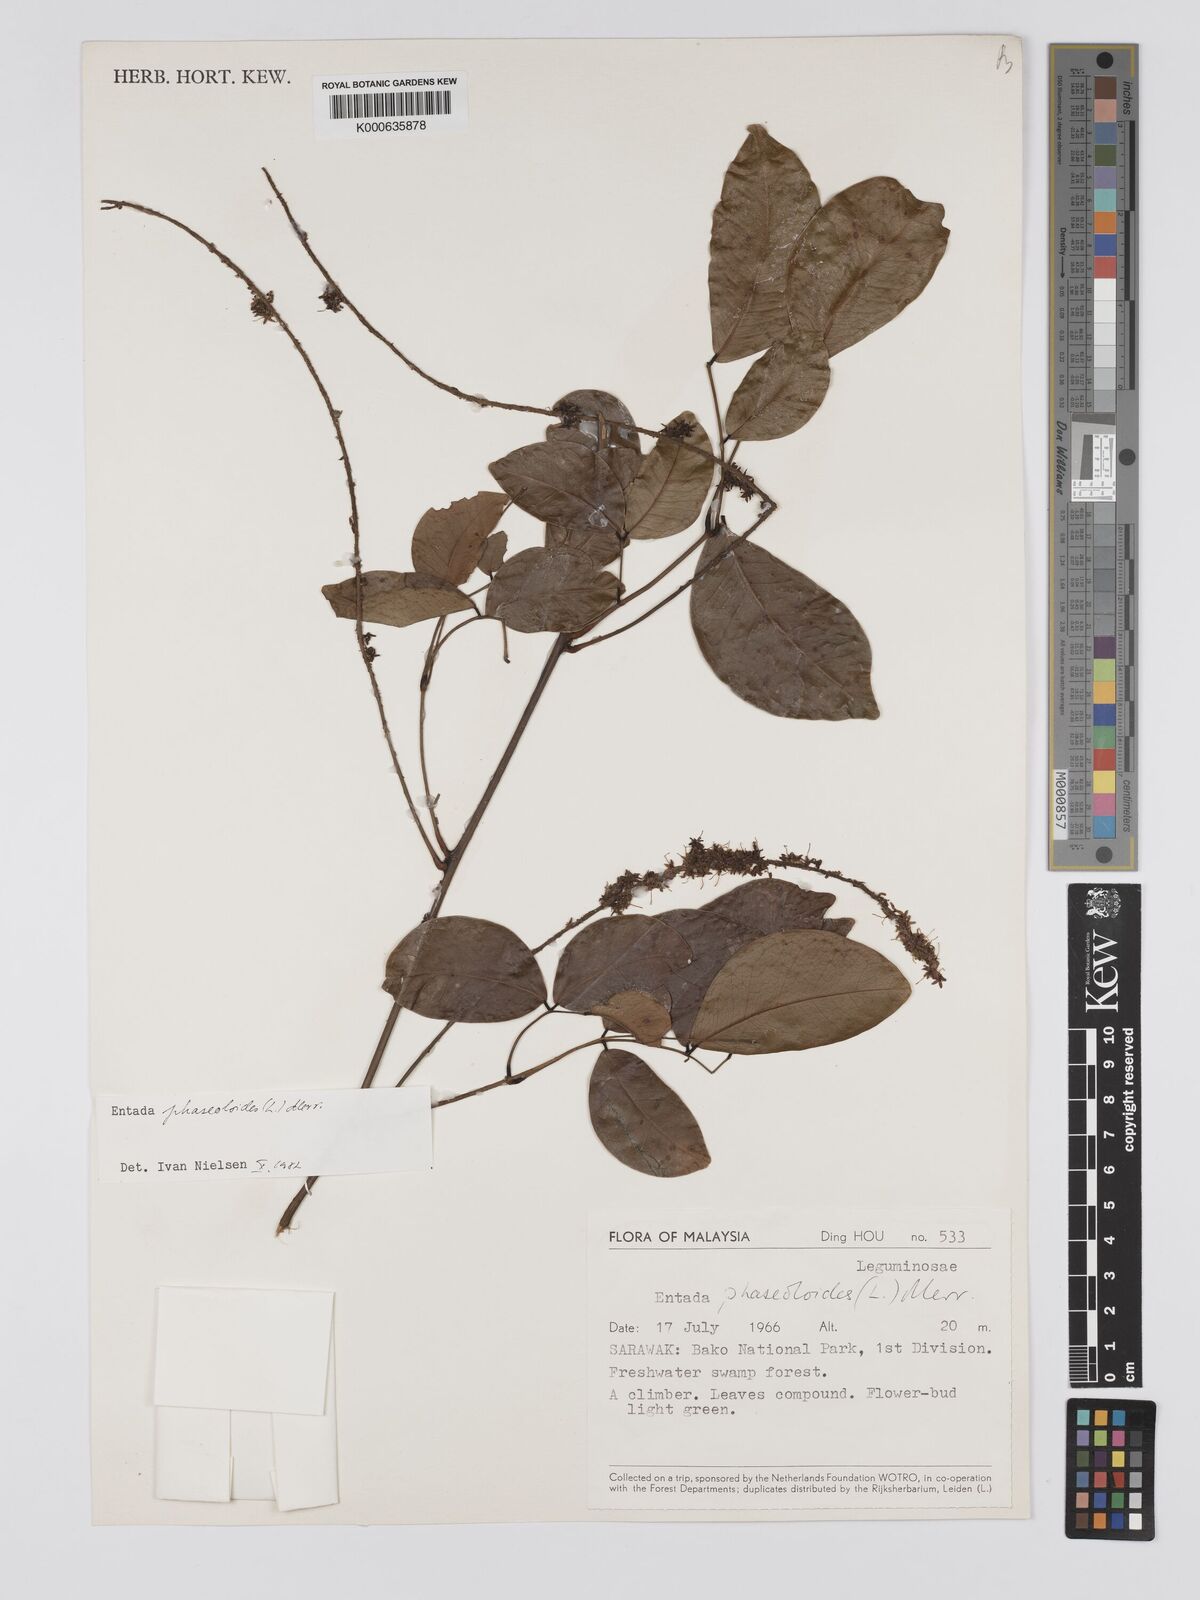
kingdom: Plantae
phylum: Tracheophyta
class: Magnoliopsida
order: Fabales
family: Fabaceae
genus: Entada
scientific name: Entada phaseoloides
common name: Matchbox-bean
